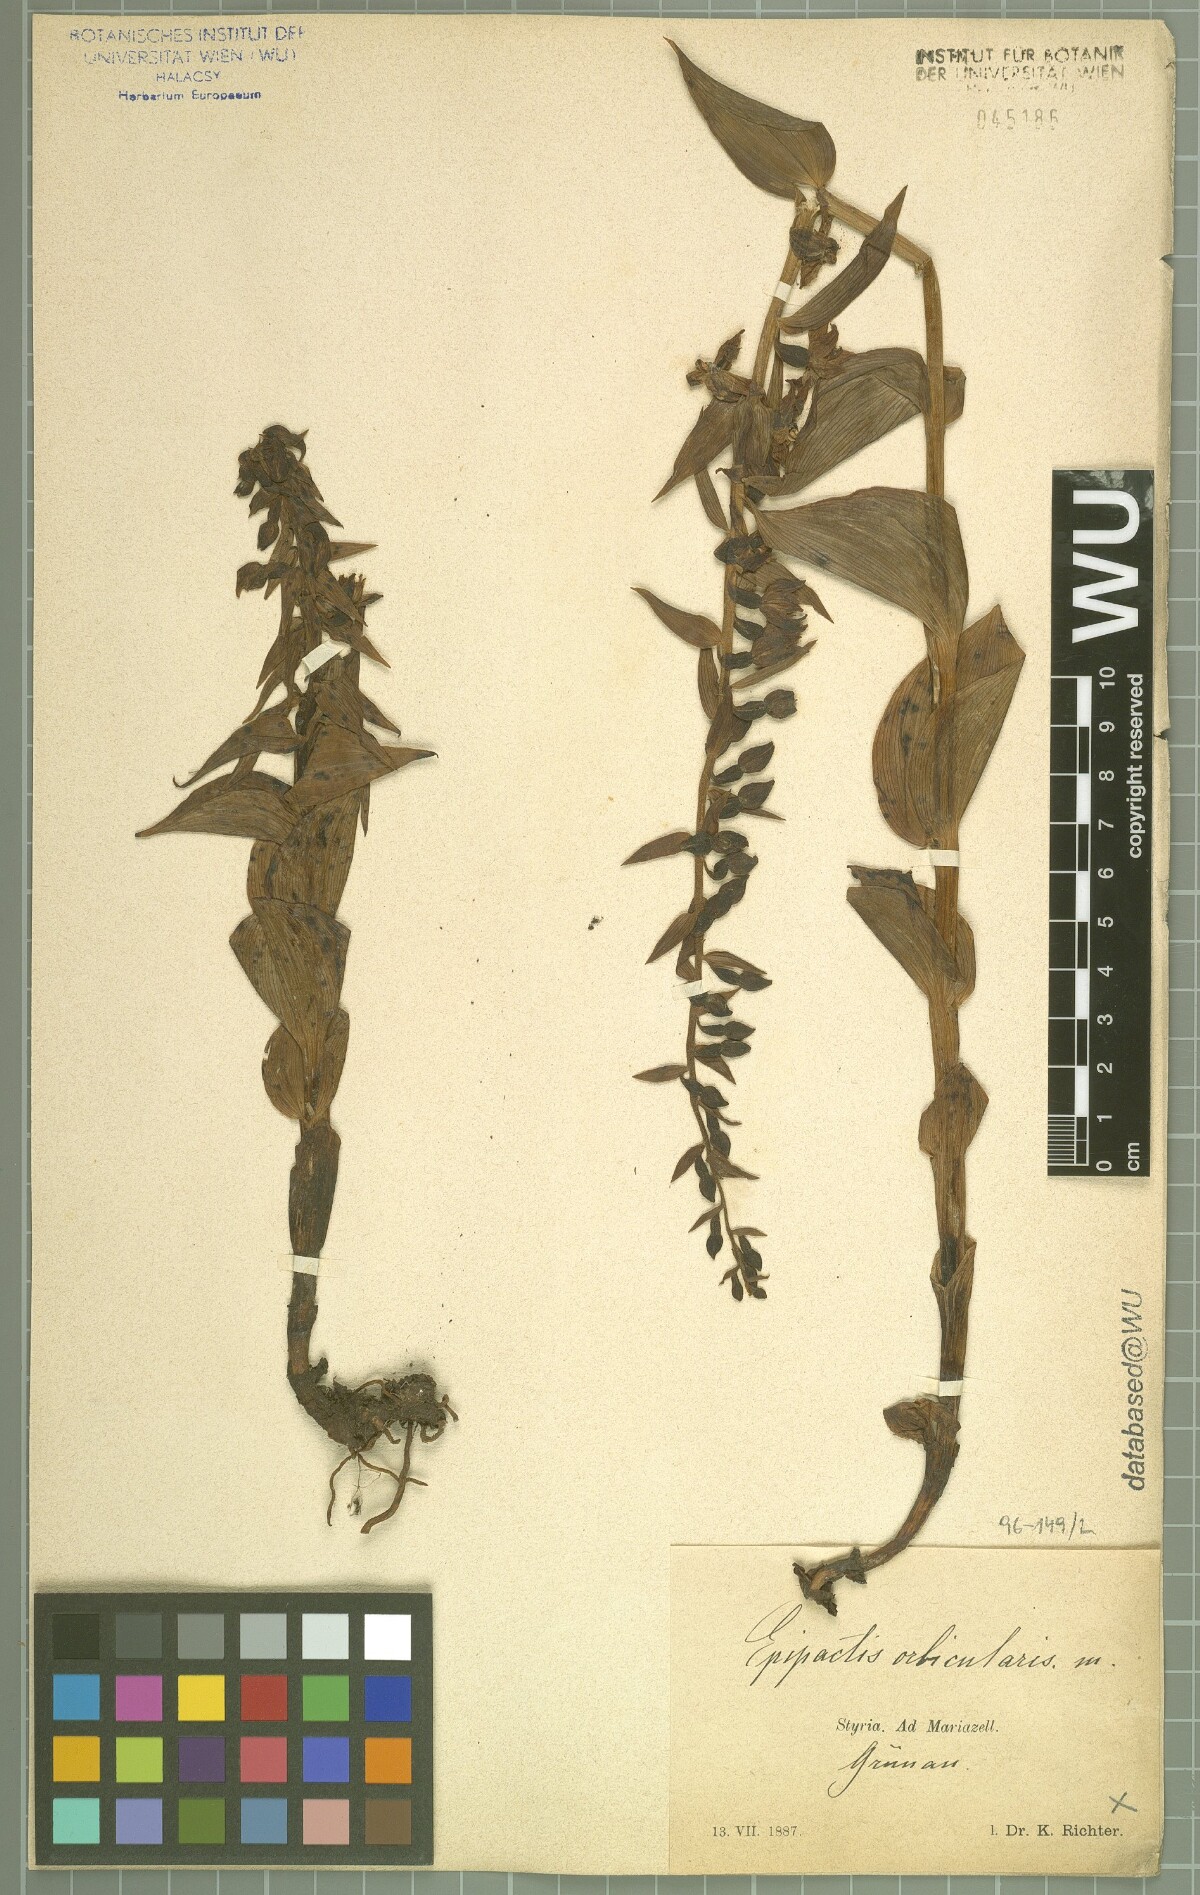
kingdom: Plantae
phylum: Tracheophyta
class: Liliopsida
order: Asparagales
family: Orchidaceae
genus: Epipactis
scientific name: Epipactis helleborine
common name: Broad-leaved helleborine
